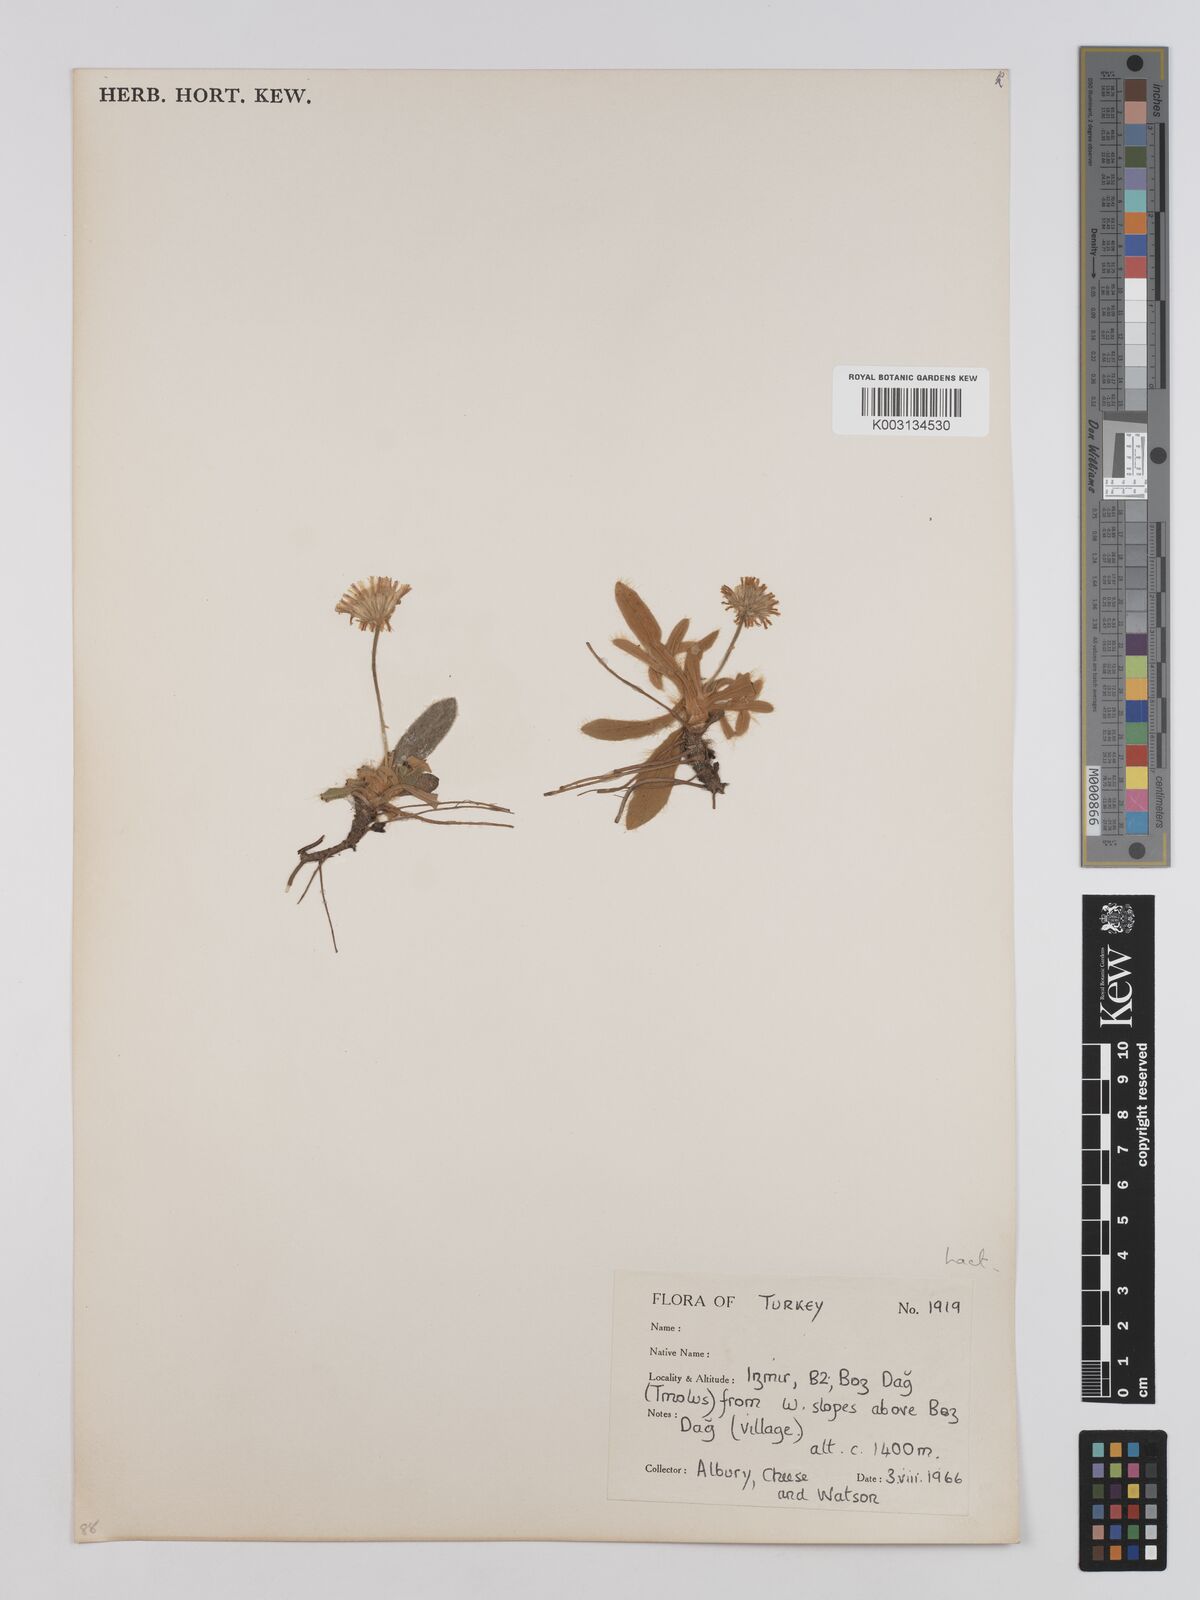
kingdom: Plantae
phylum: Tracheophyta
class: Magnoliopsida
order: Asterales
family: Asteraceae
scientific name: Asteraceae
